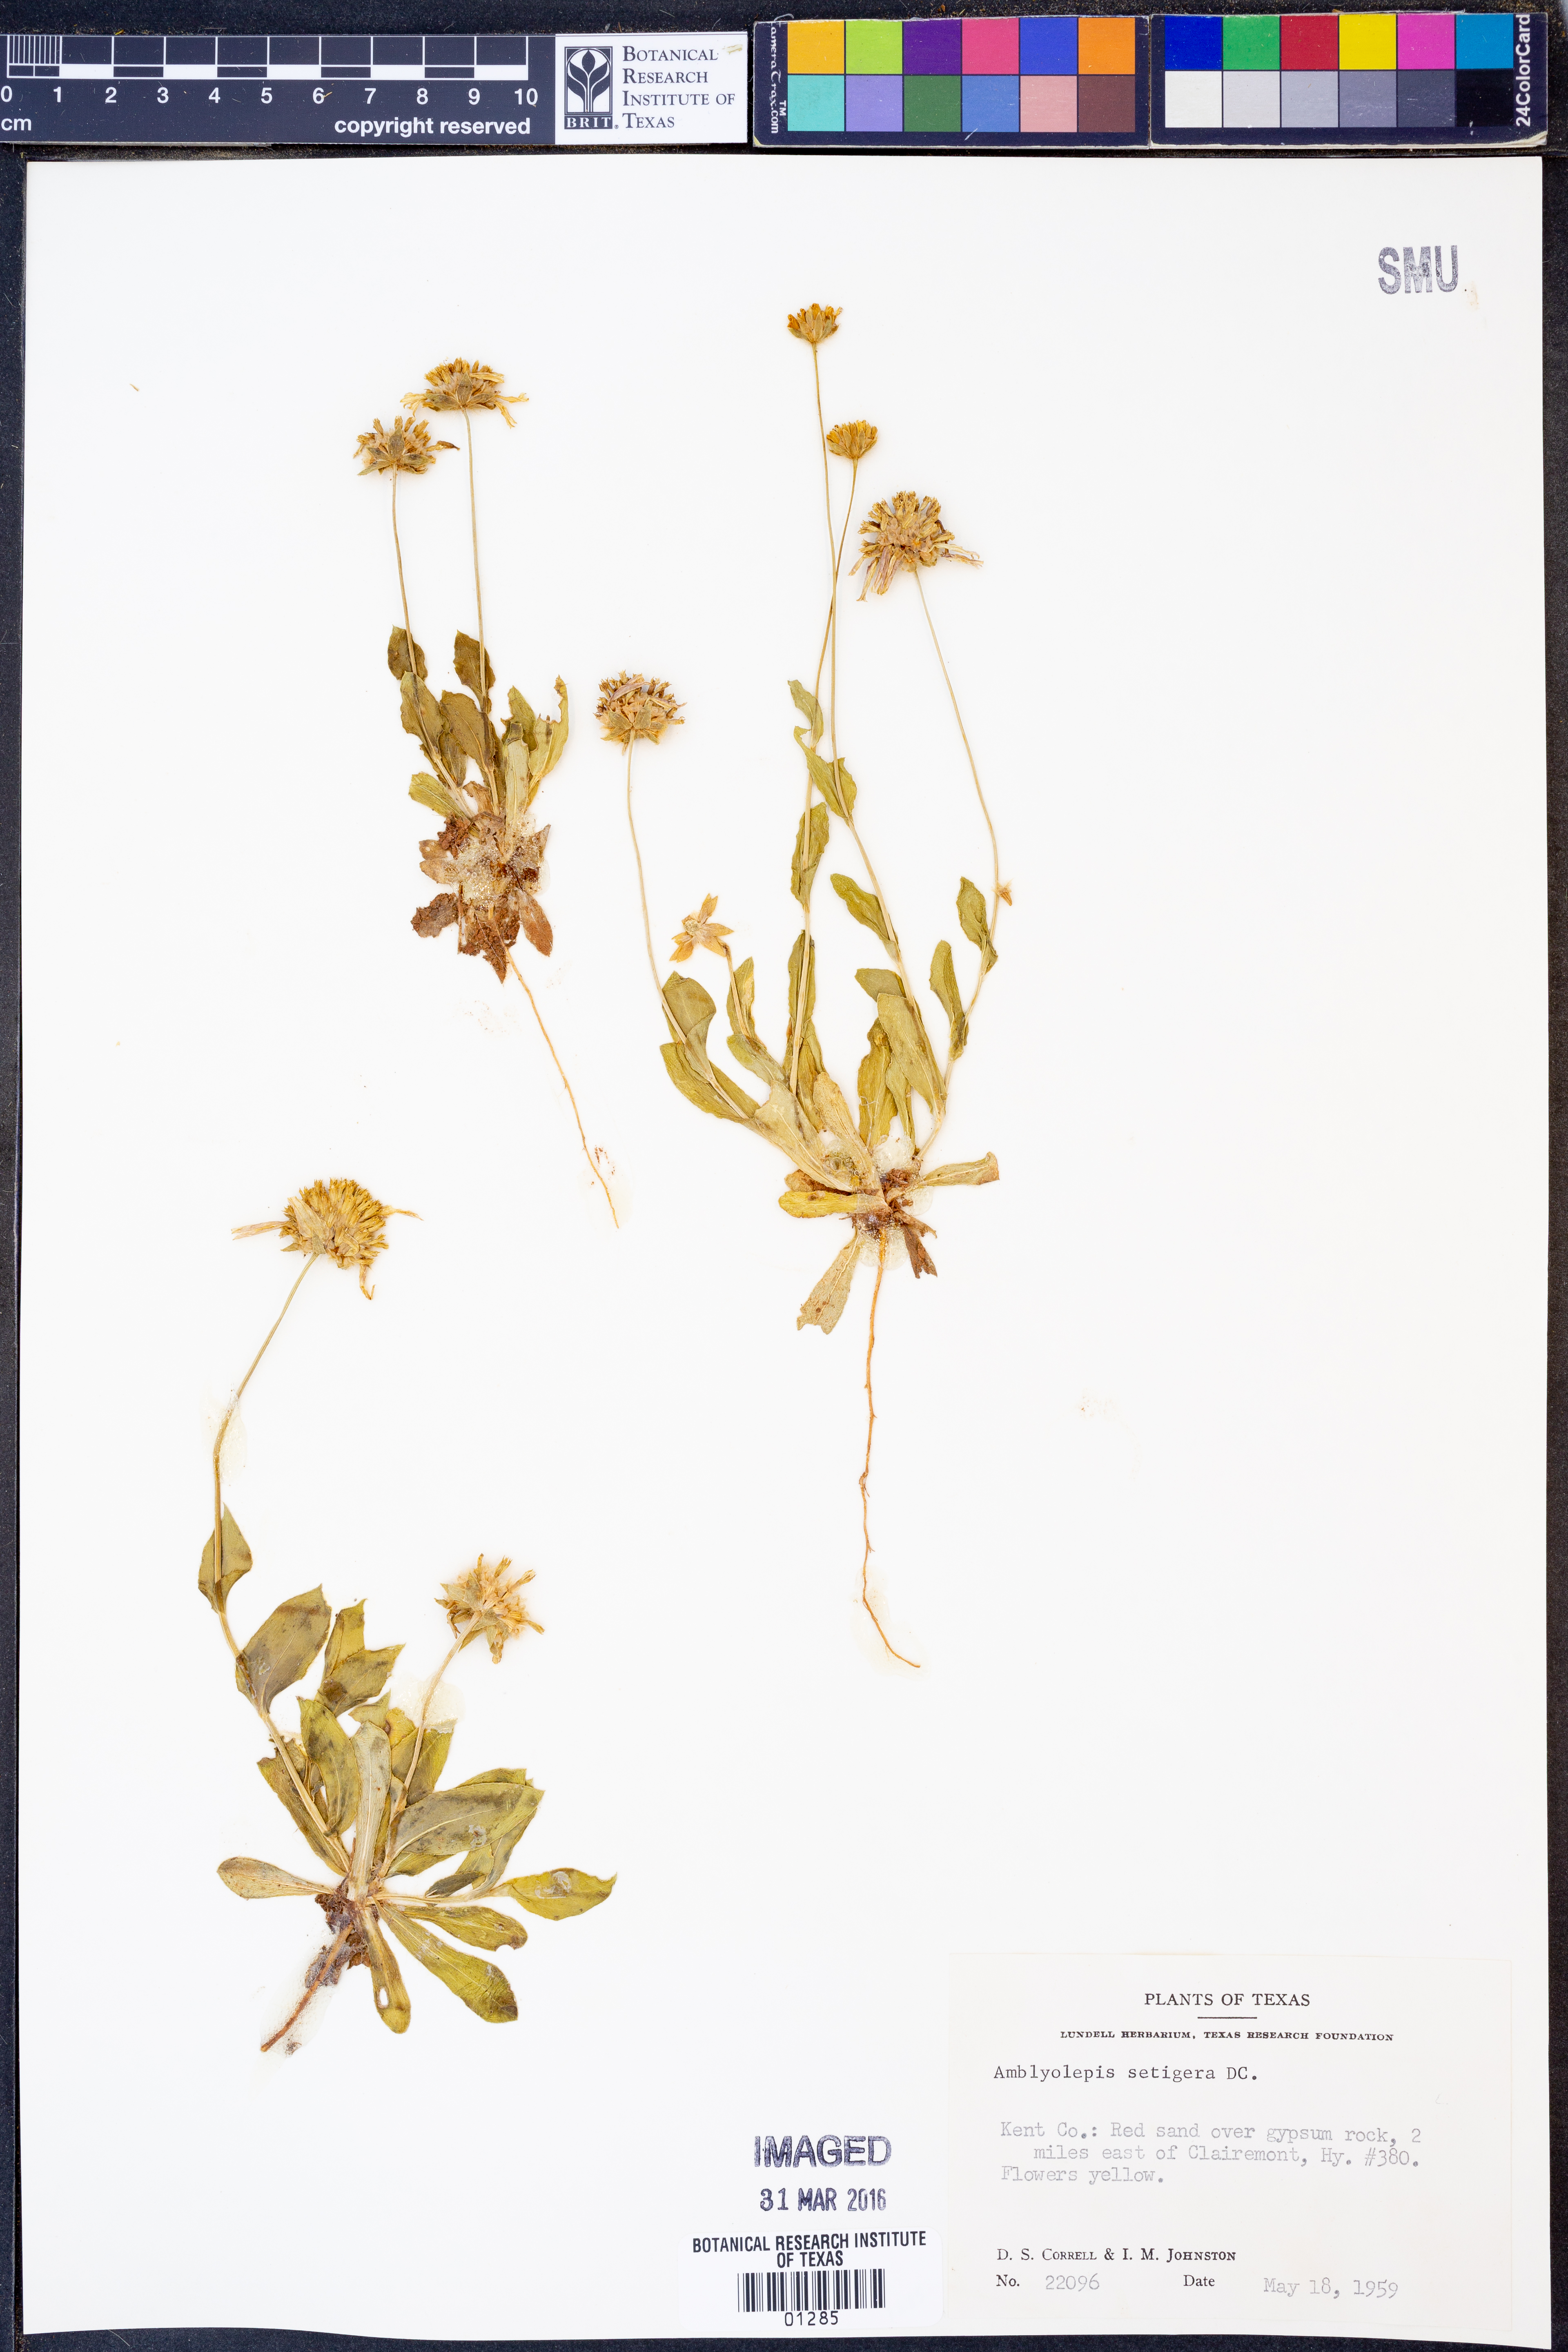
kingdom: Plantae
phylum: Tracheophyta
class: Magnoliopsida
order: Asterales
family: Asteraceae
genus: Amblyolepis
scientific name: Amblyolepis setigera
